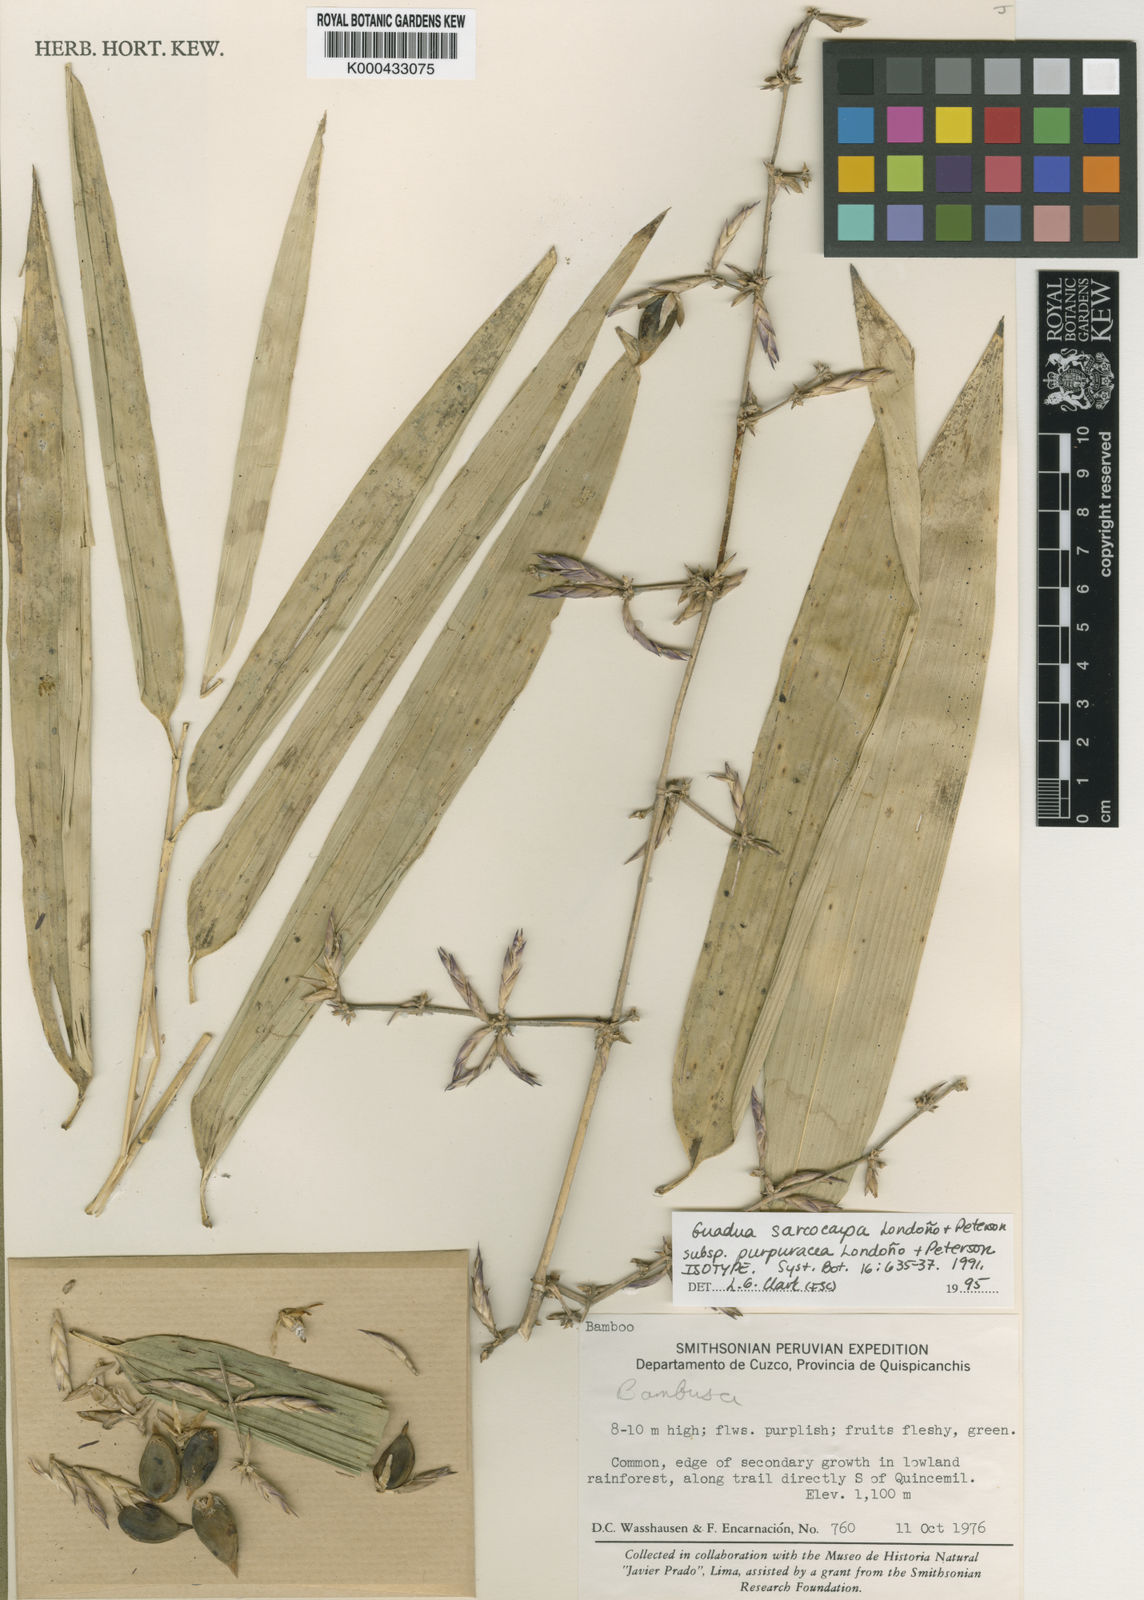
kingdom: Plantae
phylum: Tracheophyta
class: Liliopsida
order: Poales
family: Poaceae
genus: Guadua
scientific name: Guadua
